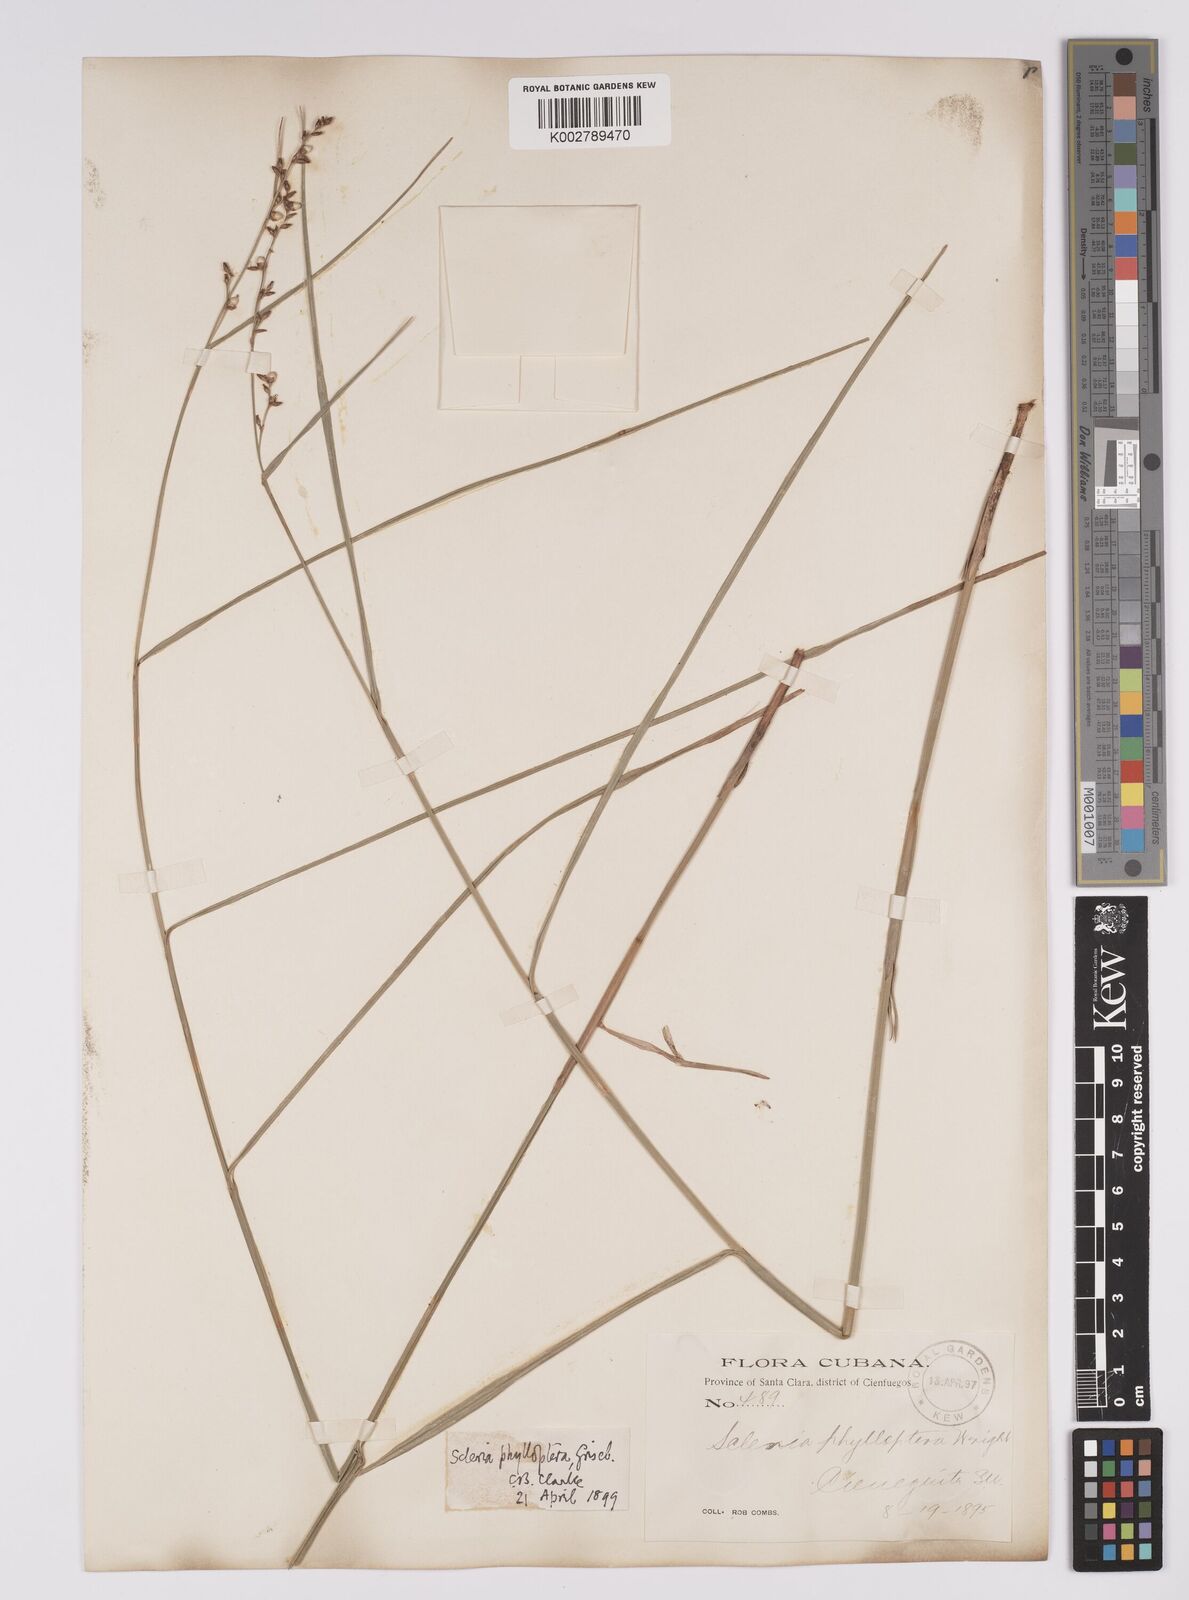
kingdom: Plantae
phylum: Tracheophyta
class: Liliopsida
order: Poales
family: Cyperaceae
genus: Scleria
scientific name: Scleria testacea
